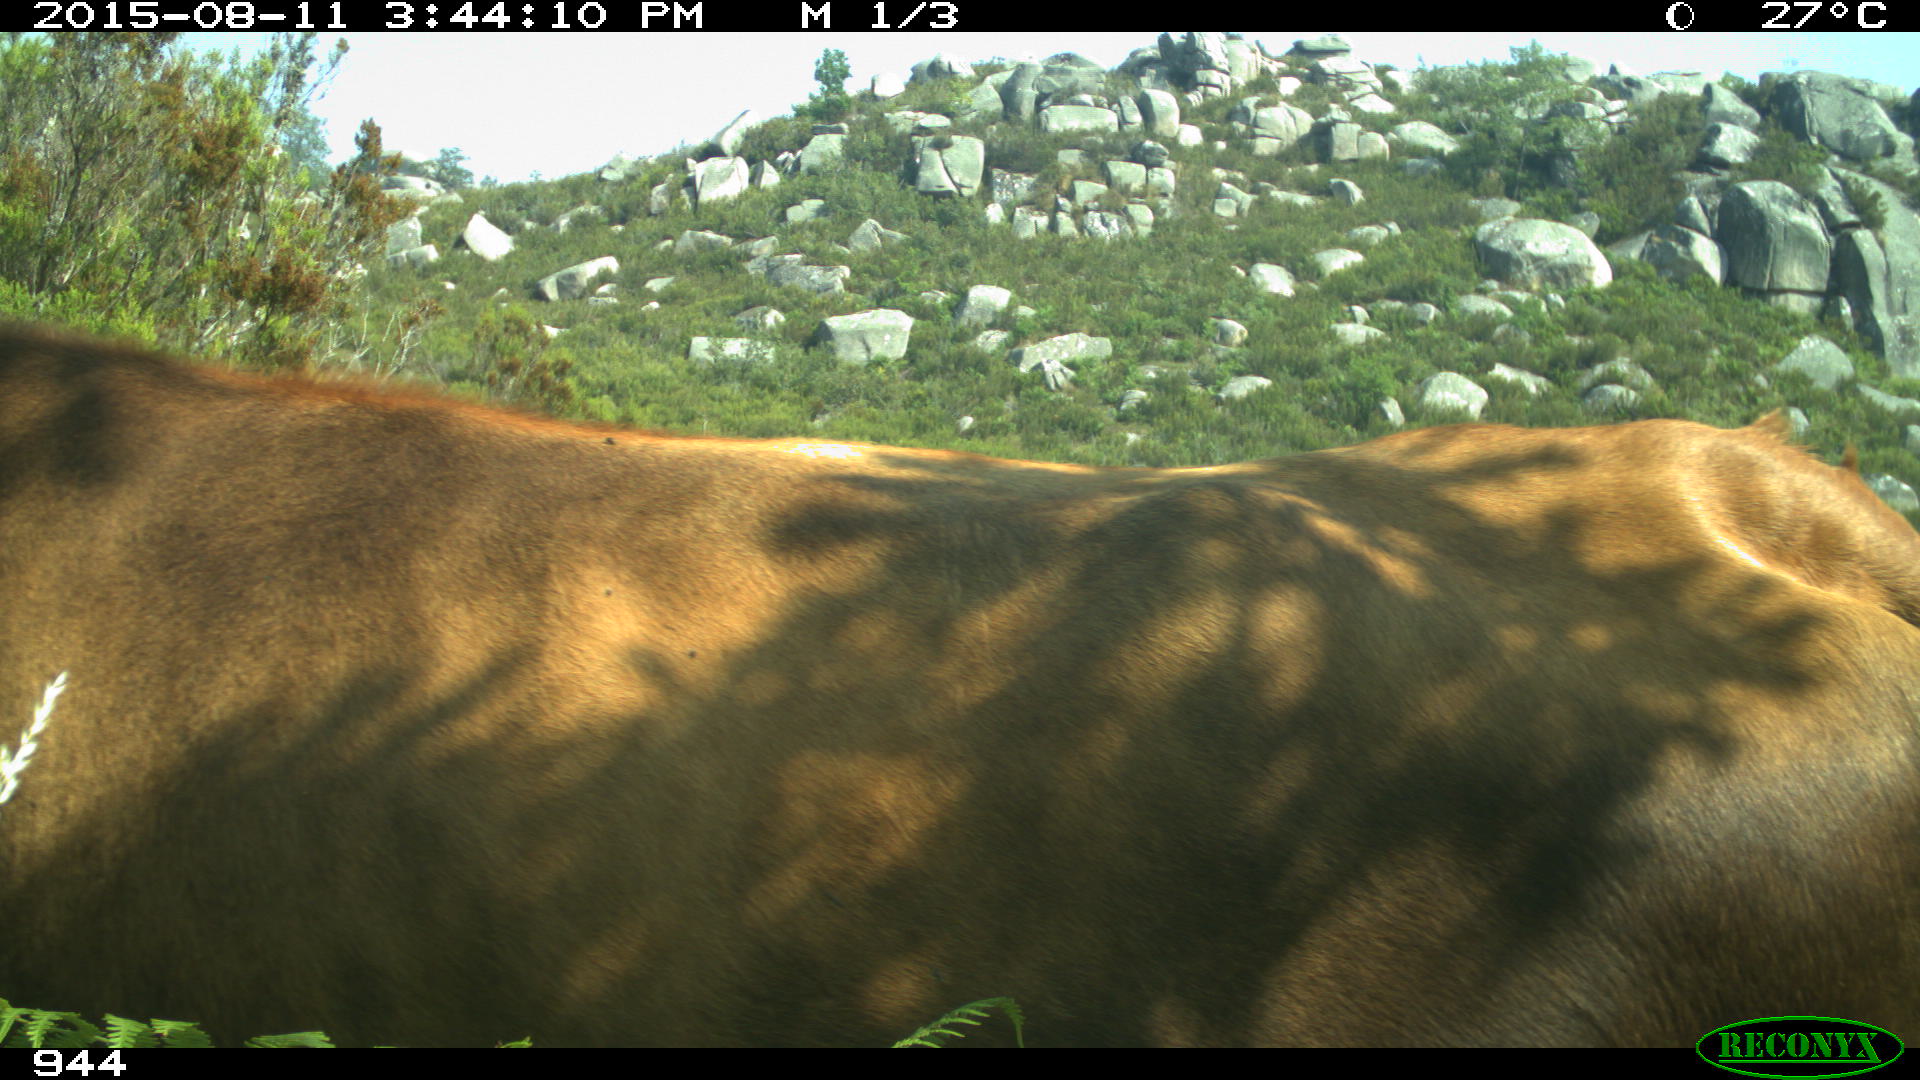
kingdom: Animalia
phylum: Chordata
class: Mammalia
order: Artiodactyla
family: Bovidae
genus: Bos
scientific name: Bos taurus
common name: Domesticated cattle
